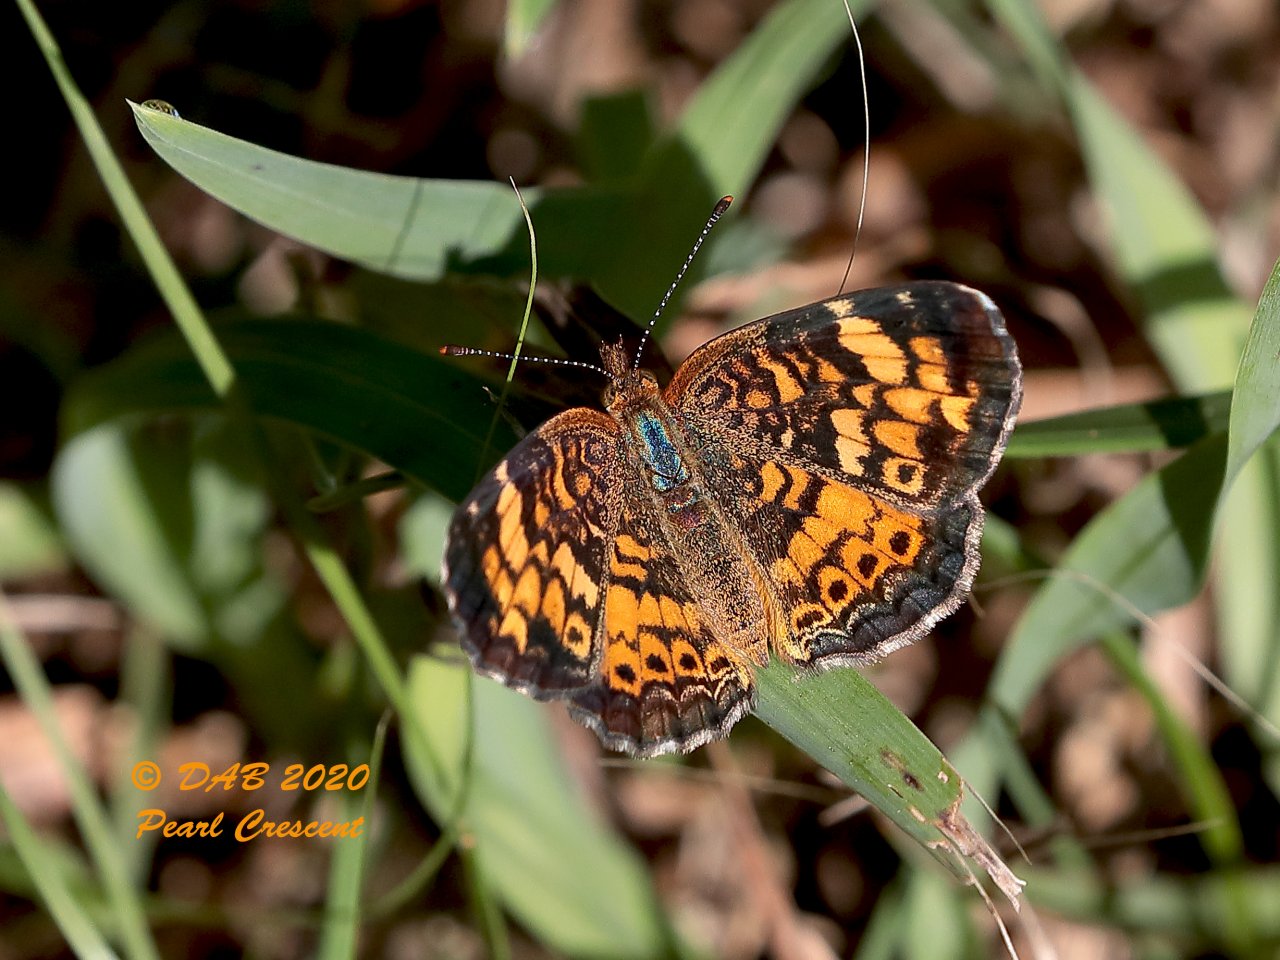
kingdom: Animalia
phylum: Arthropoda
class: Insecta
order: Lepidoptera
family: Nymphalidae
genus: Phyciodes
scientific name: Phyciodes tharos
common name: Pearl Crescent
